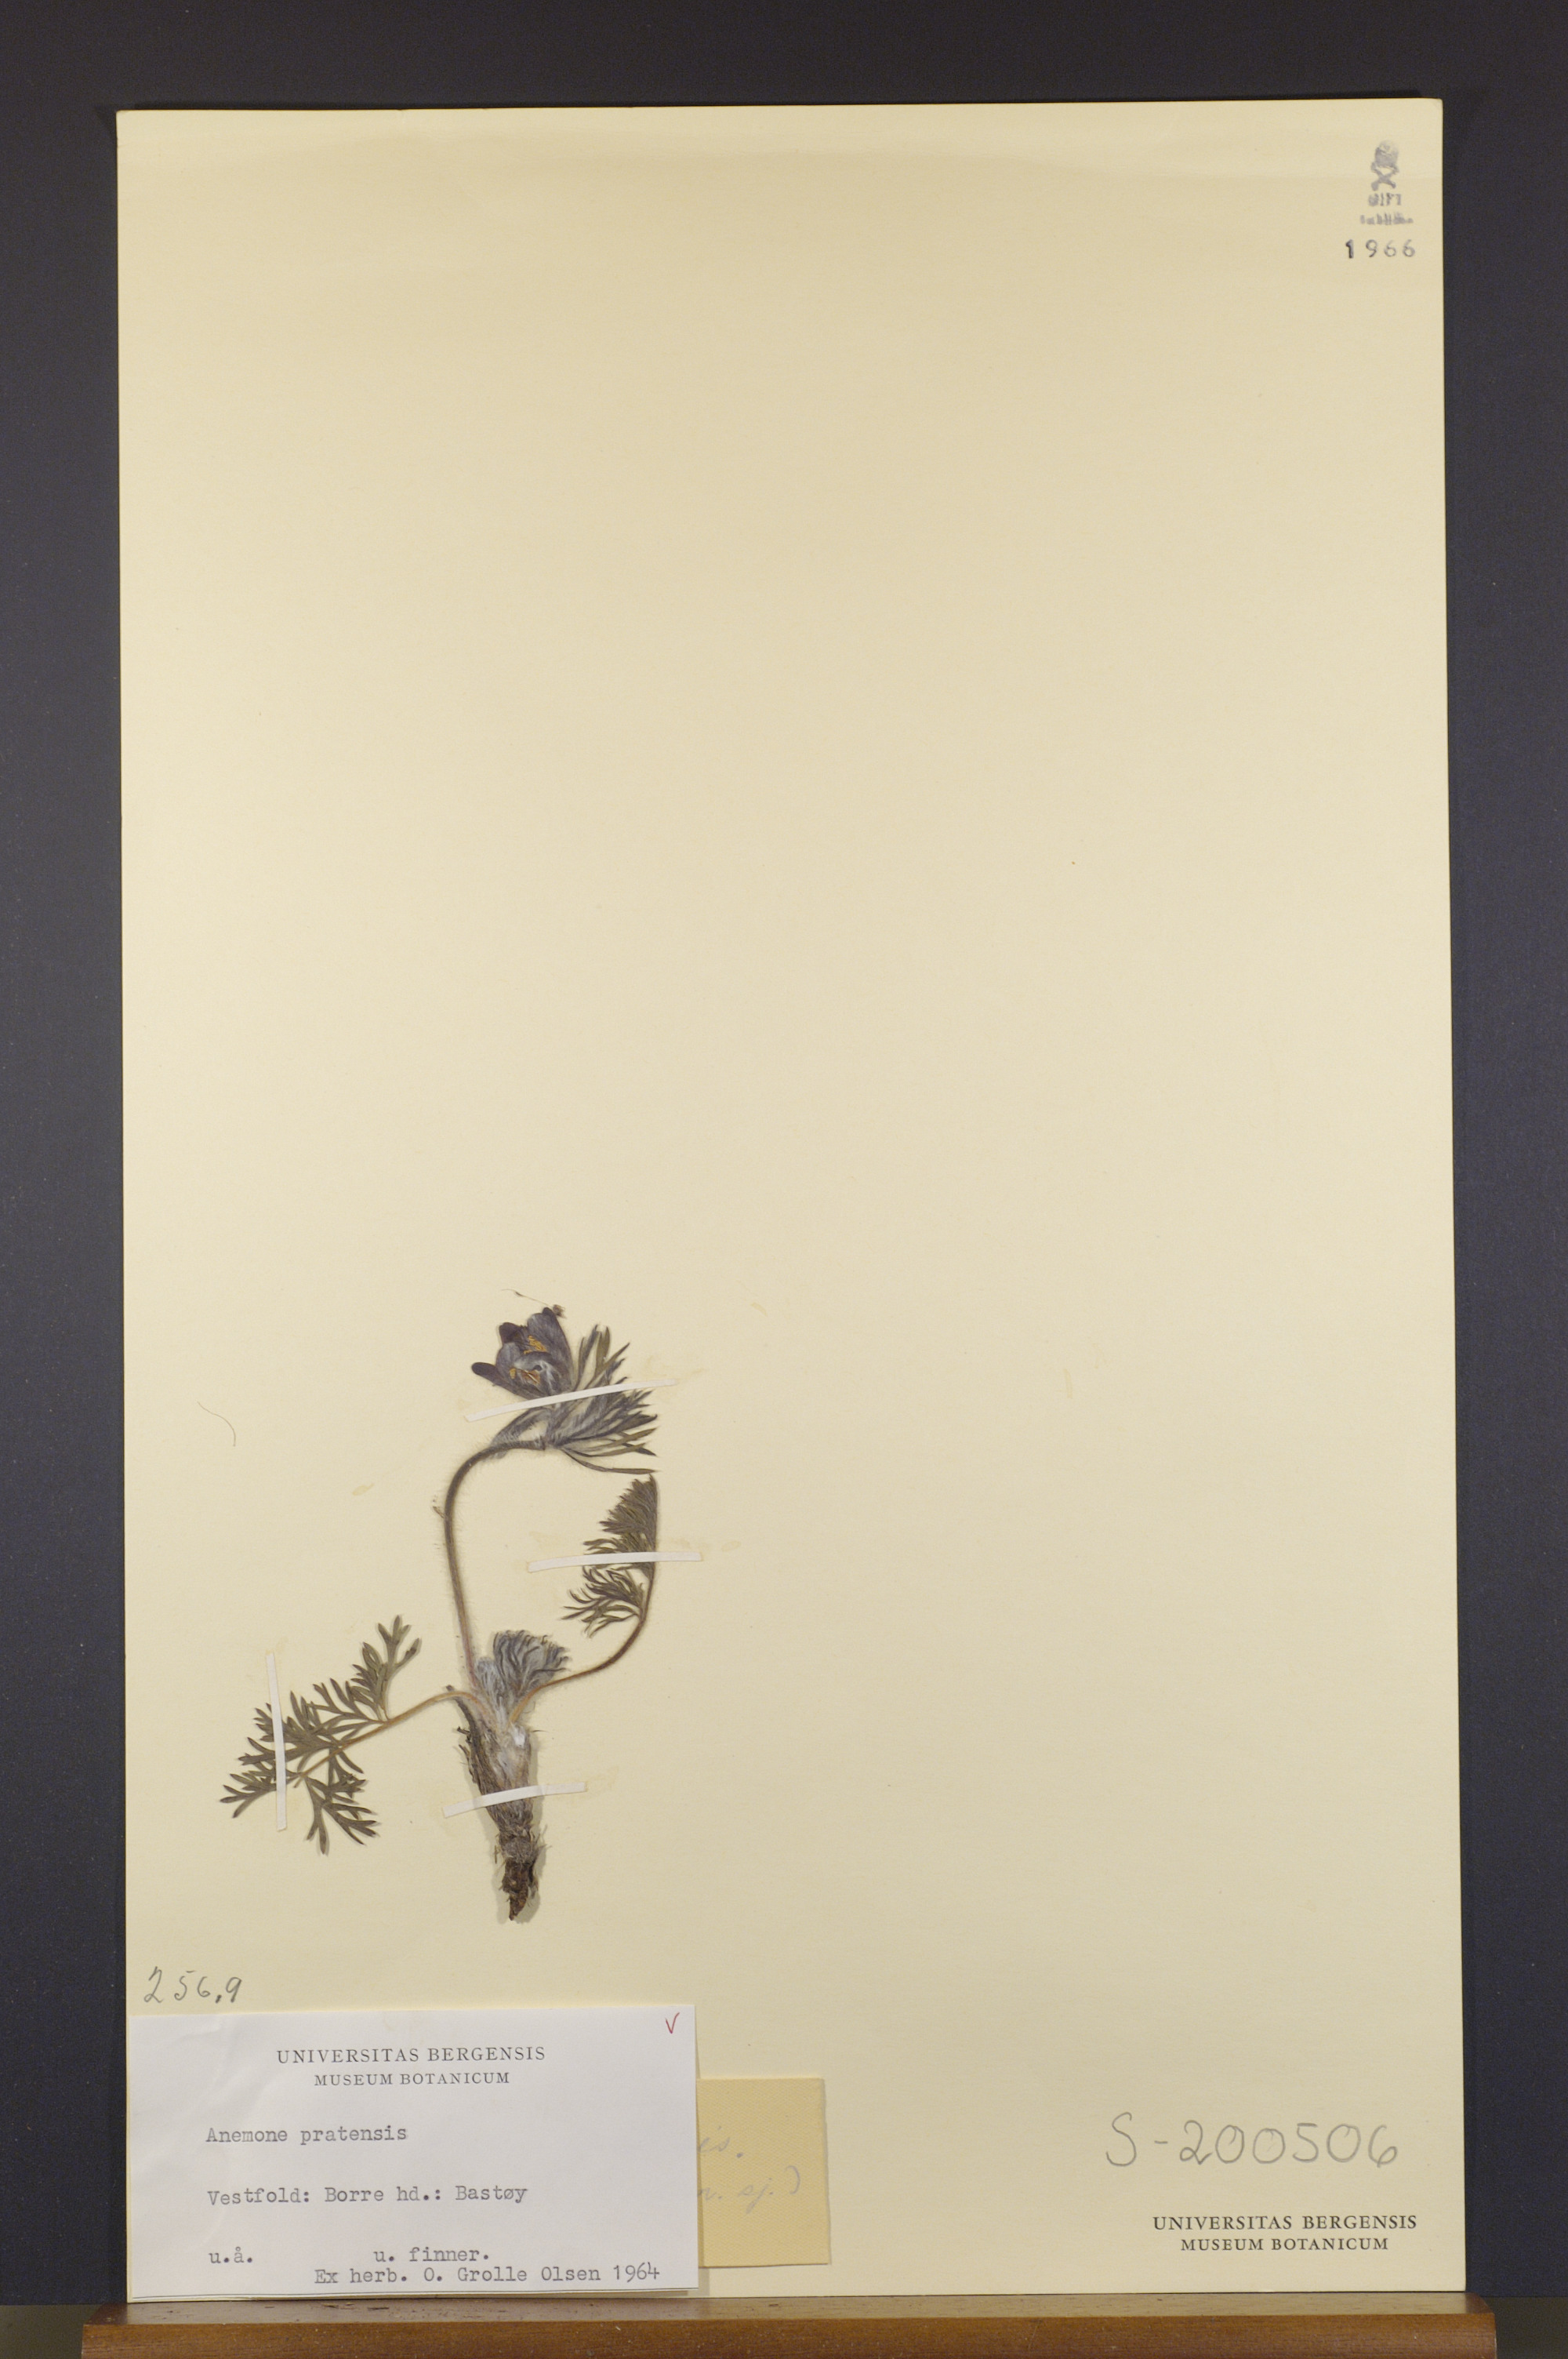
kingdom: Plantae
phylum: Tracheophyta
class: Magnoliopsida
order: Ranunculales
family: Ranunculaceae
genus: Pulsatilla
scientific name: Pulsatilla pratensis
